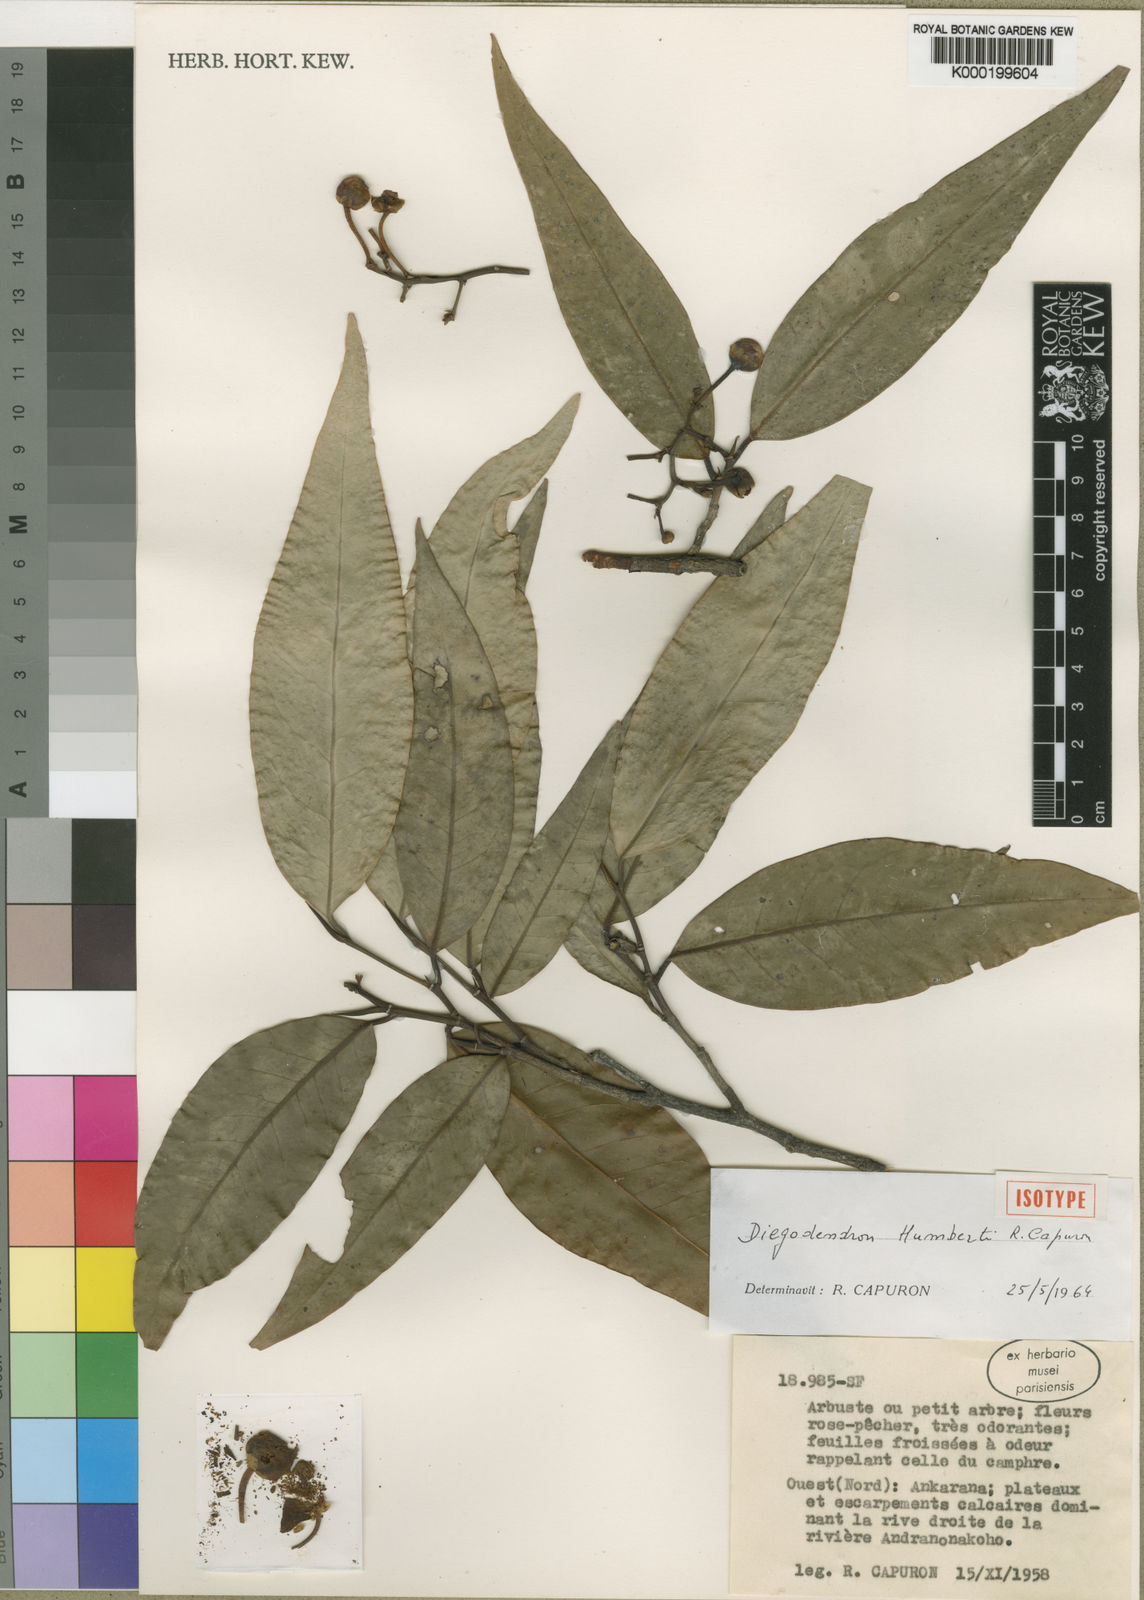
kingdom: Plantae
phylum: Tracheophyta
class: Magnoliopsida
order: Malvales
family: Diegodendraceae
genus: Diegodendron
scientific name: Diegodendron humbertii
